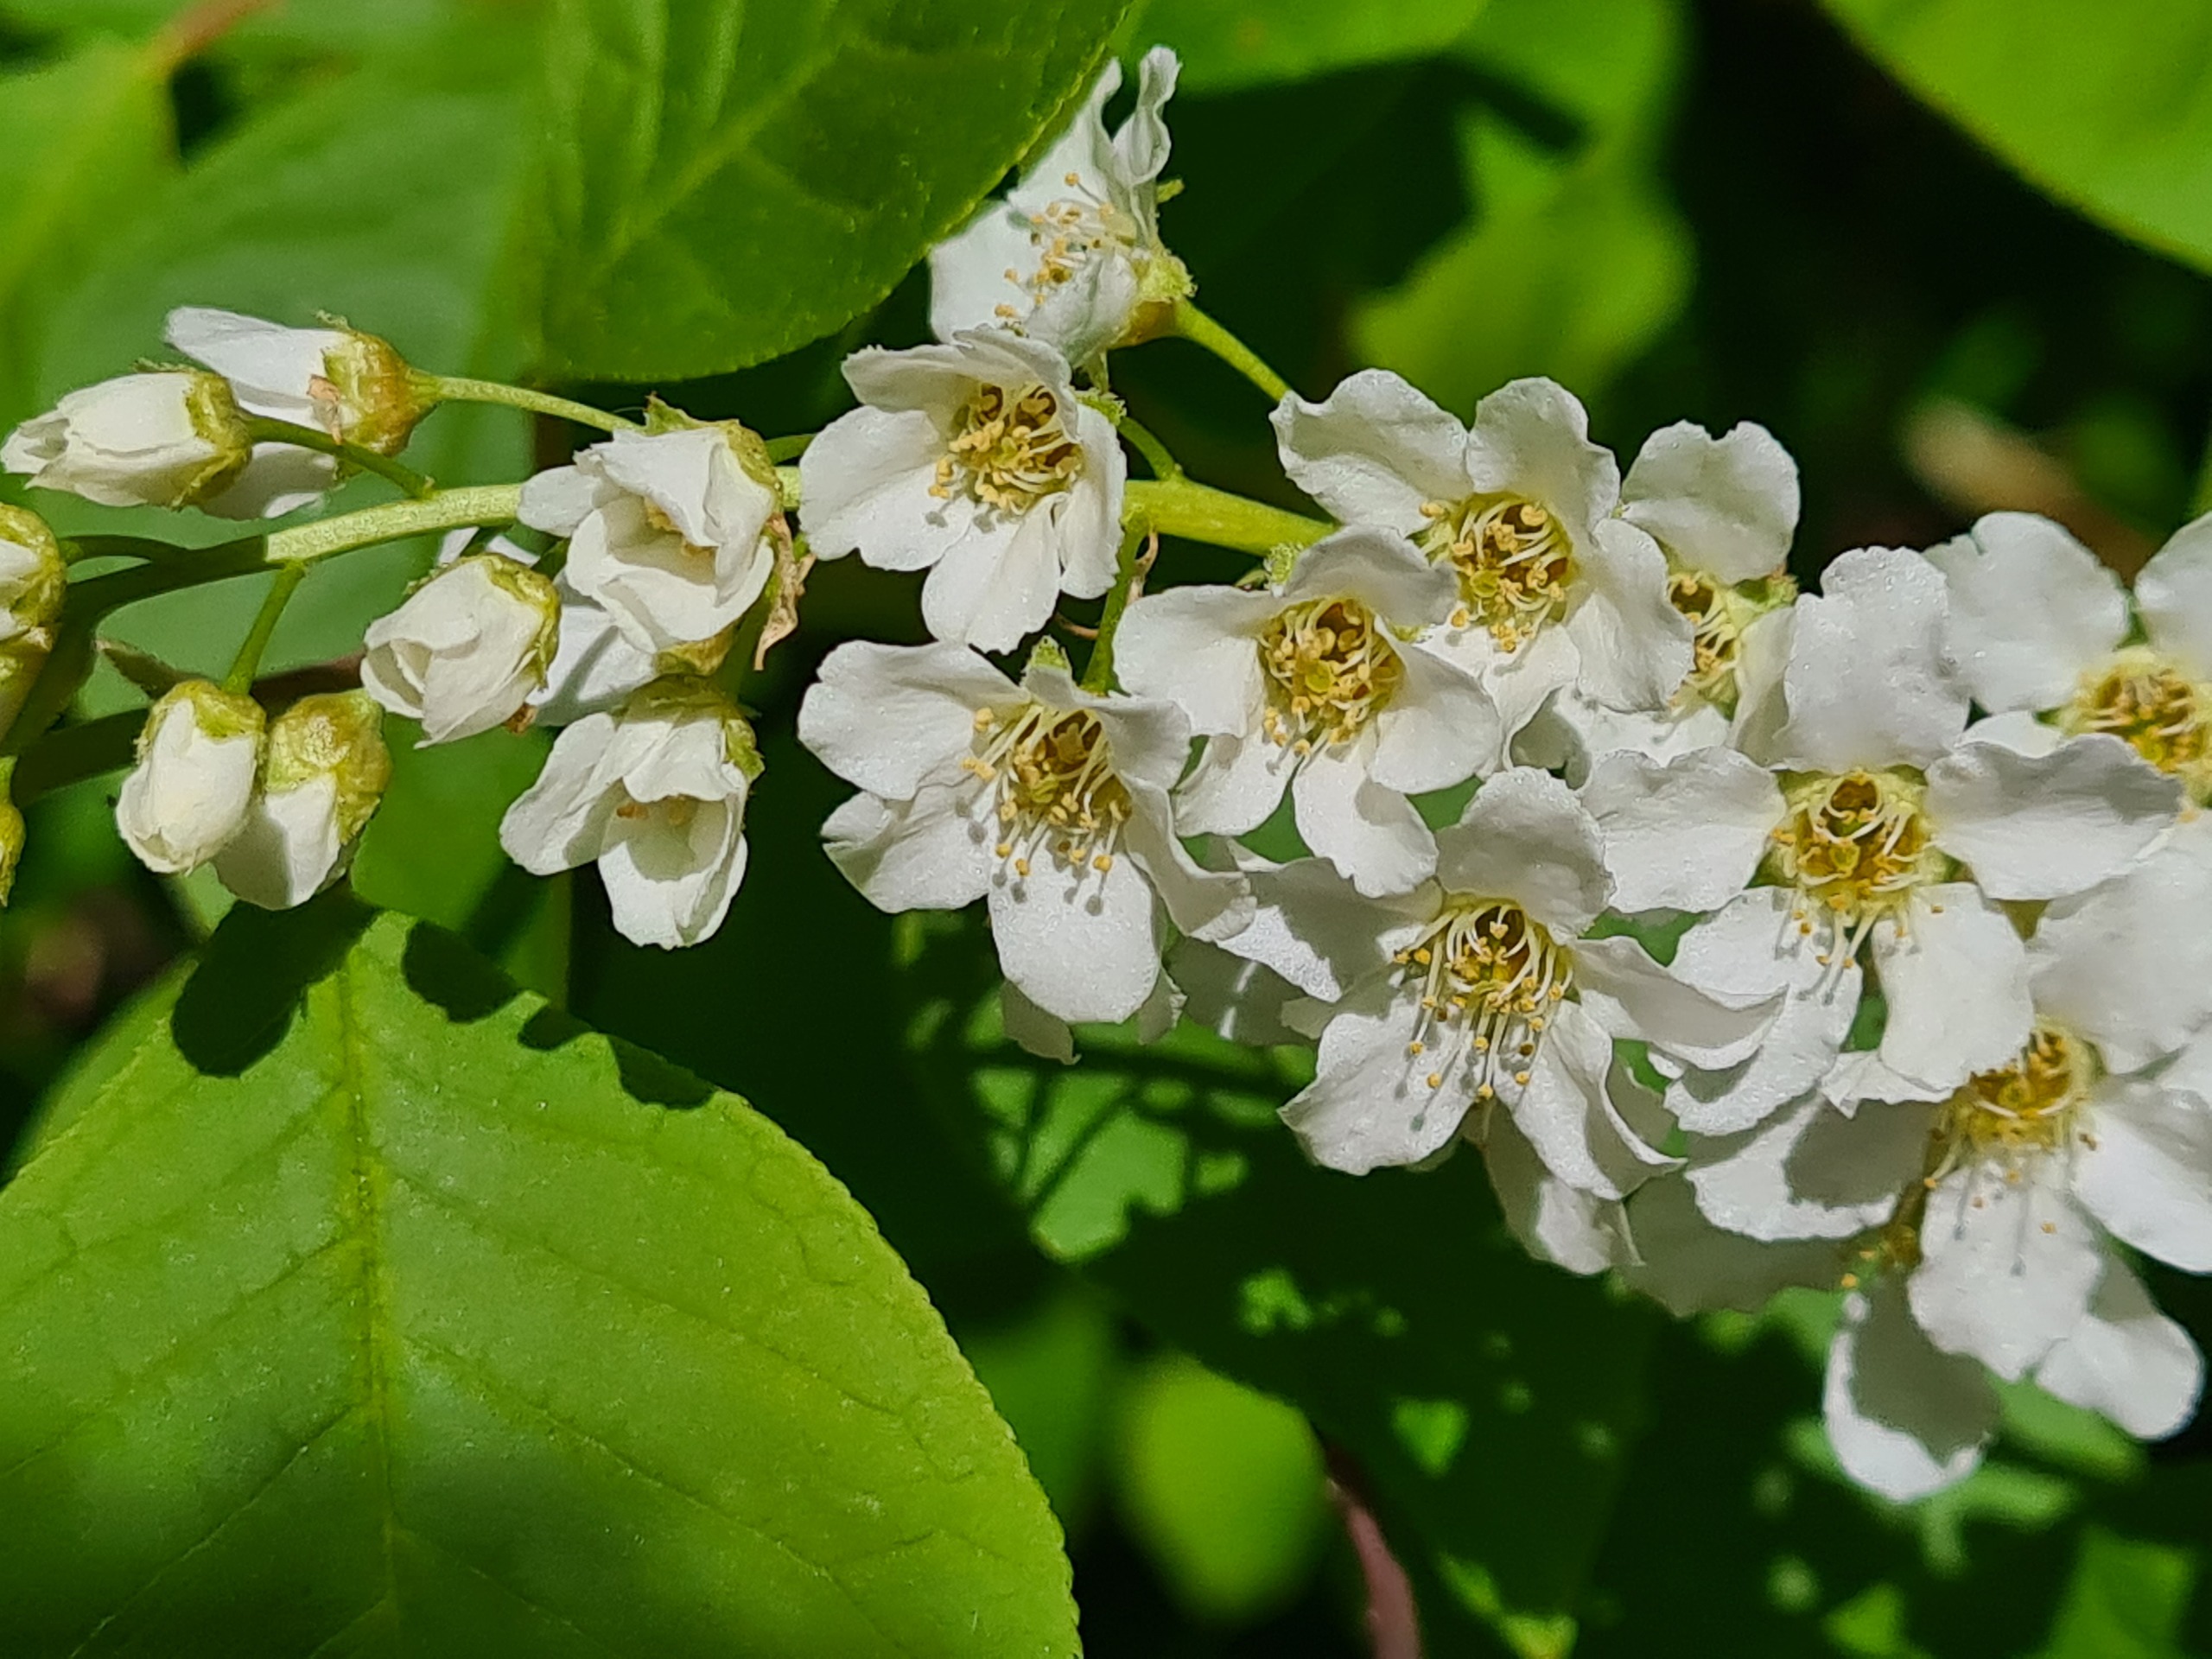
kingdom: Plantae
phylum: Tracheophyta
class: Magnoliopsida
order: Rosales
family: Rosaceae
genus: Prunus
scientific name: Prunus padus
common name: Almindelig hæg
